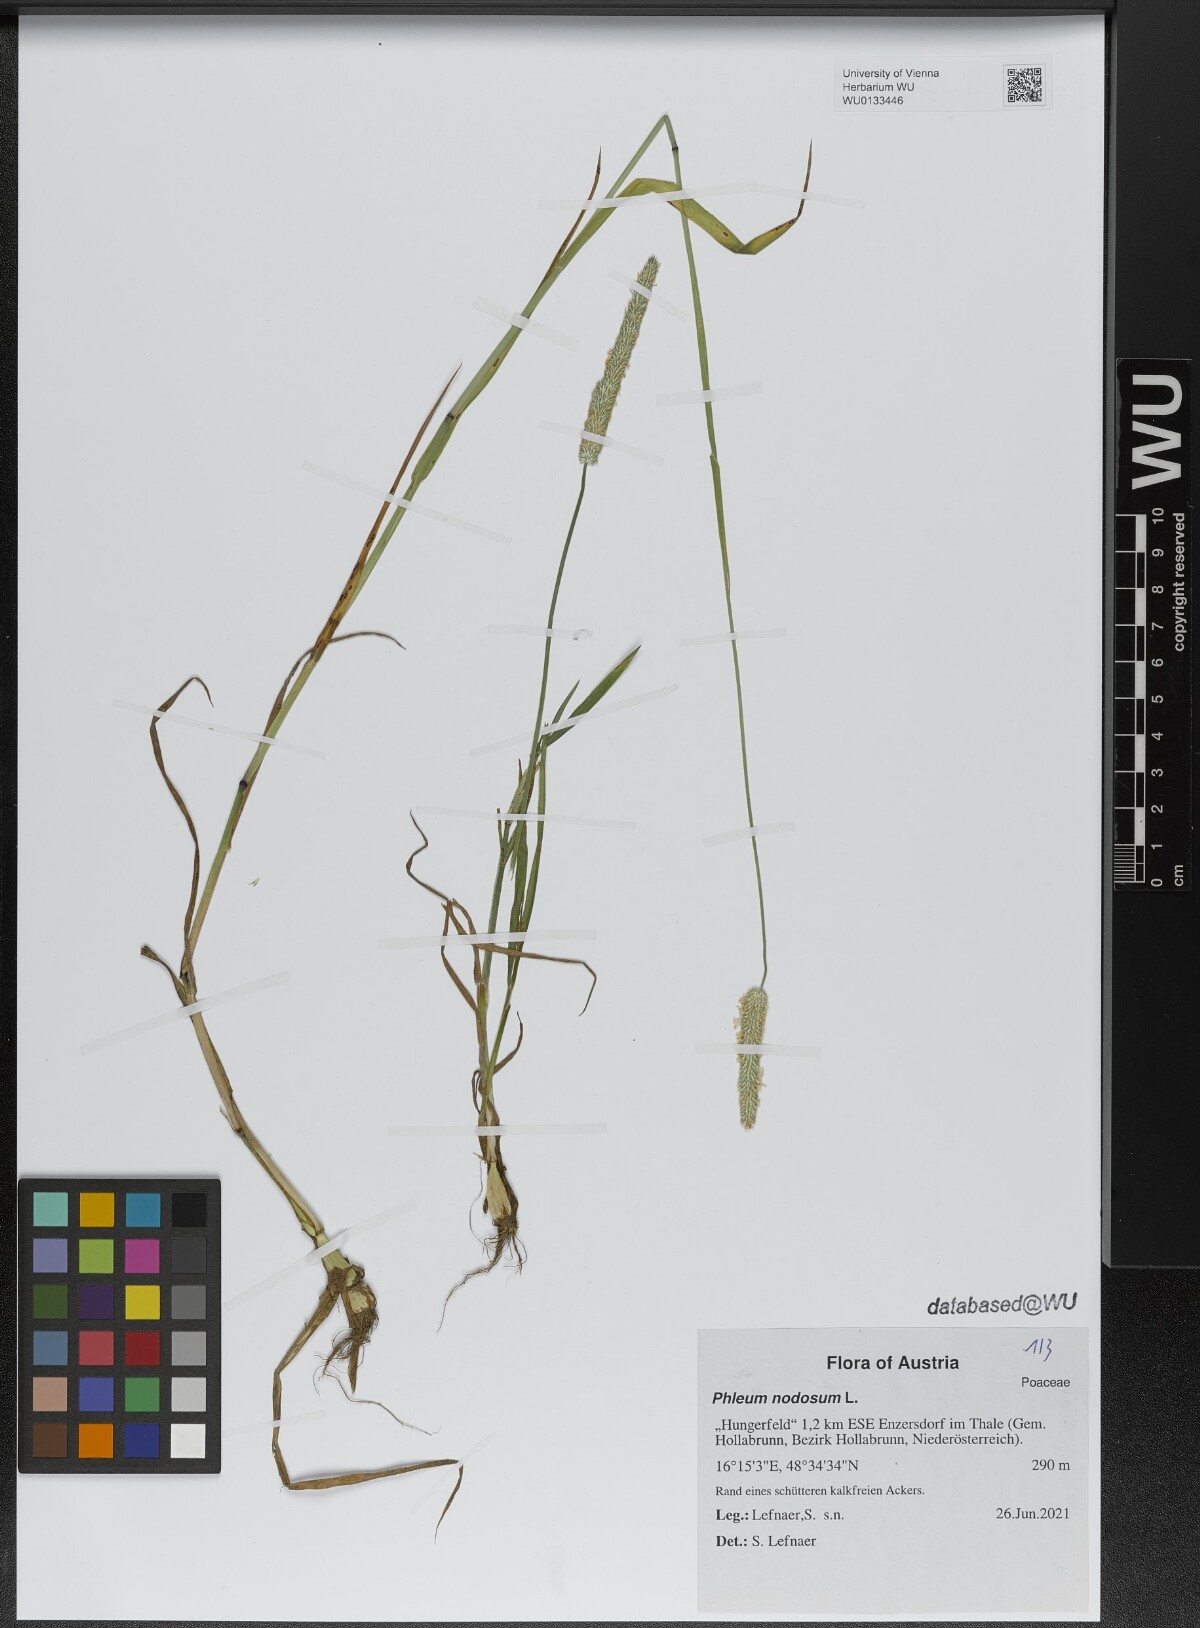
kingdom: Plantae
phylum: Tracheophyta
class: Liliopsida
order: Poales
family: Poaceae
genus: Phleum
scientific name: Phleum pratense
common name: Timothy grass
